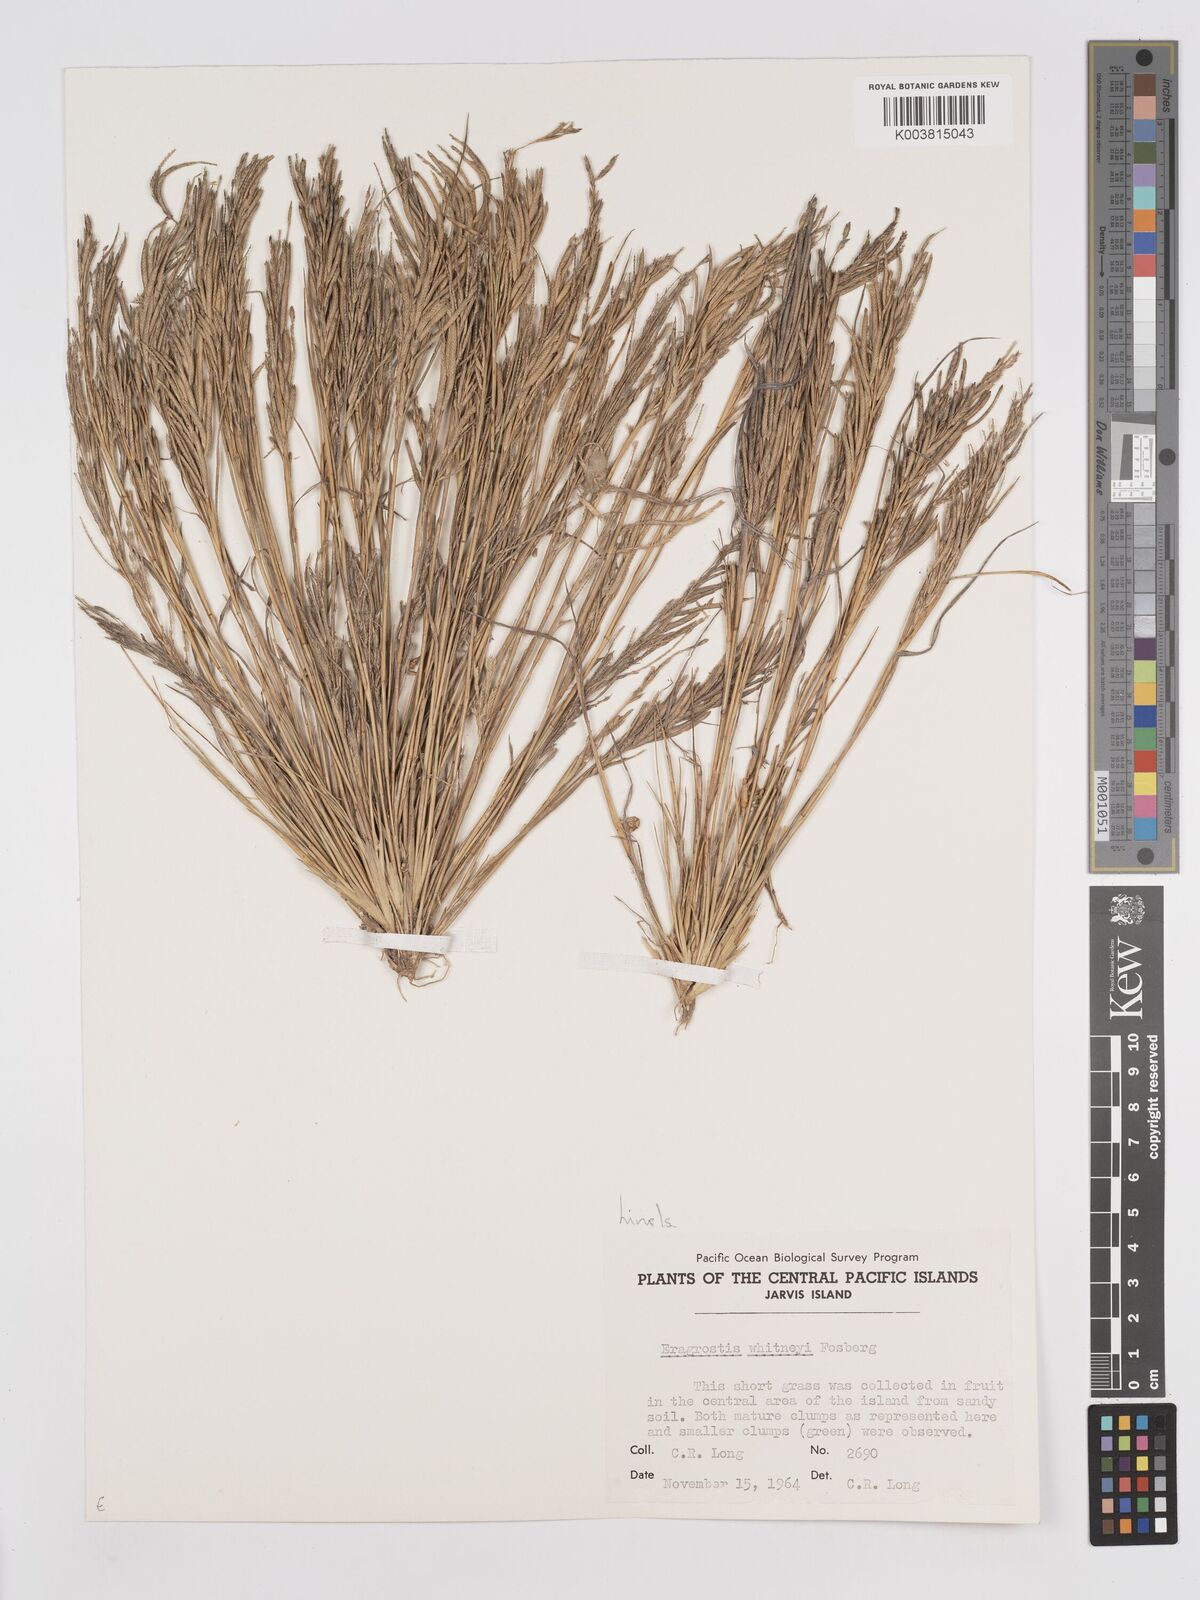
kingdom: Plantae
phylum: Tracheophyta
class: Liliopsida
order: Poales
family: Poaceae
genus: Eragrostis
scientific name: Eragrostis paupera
